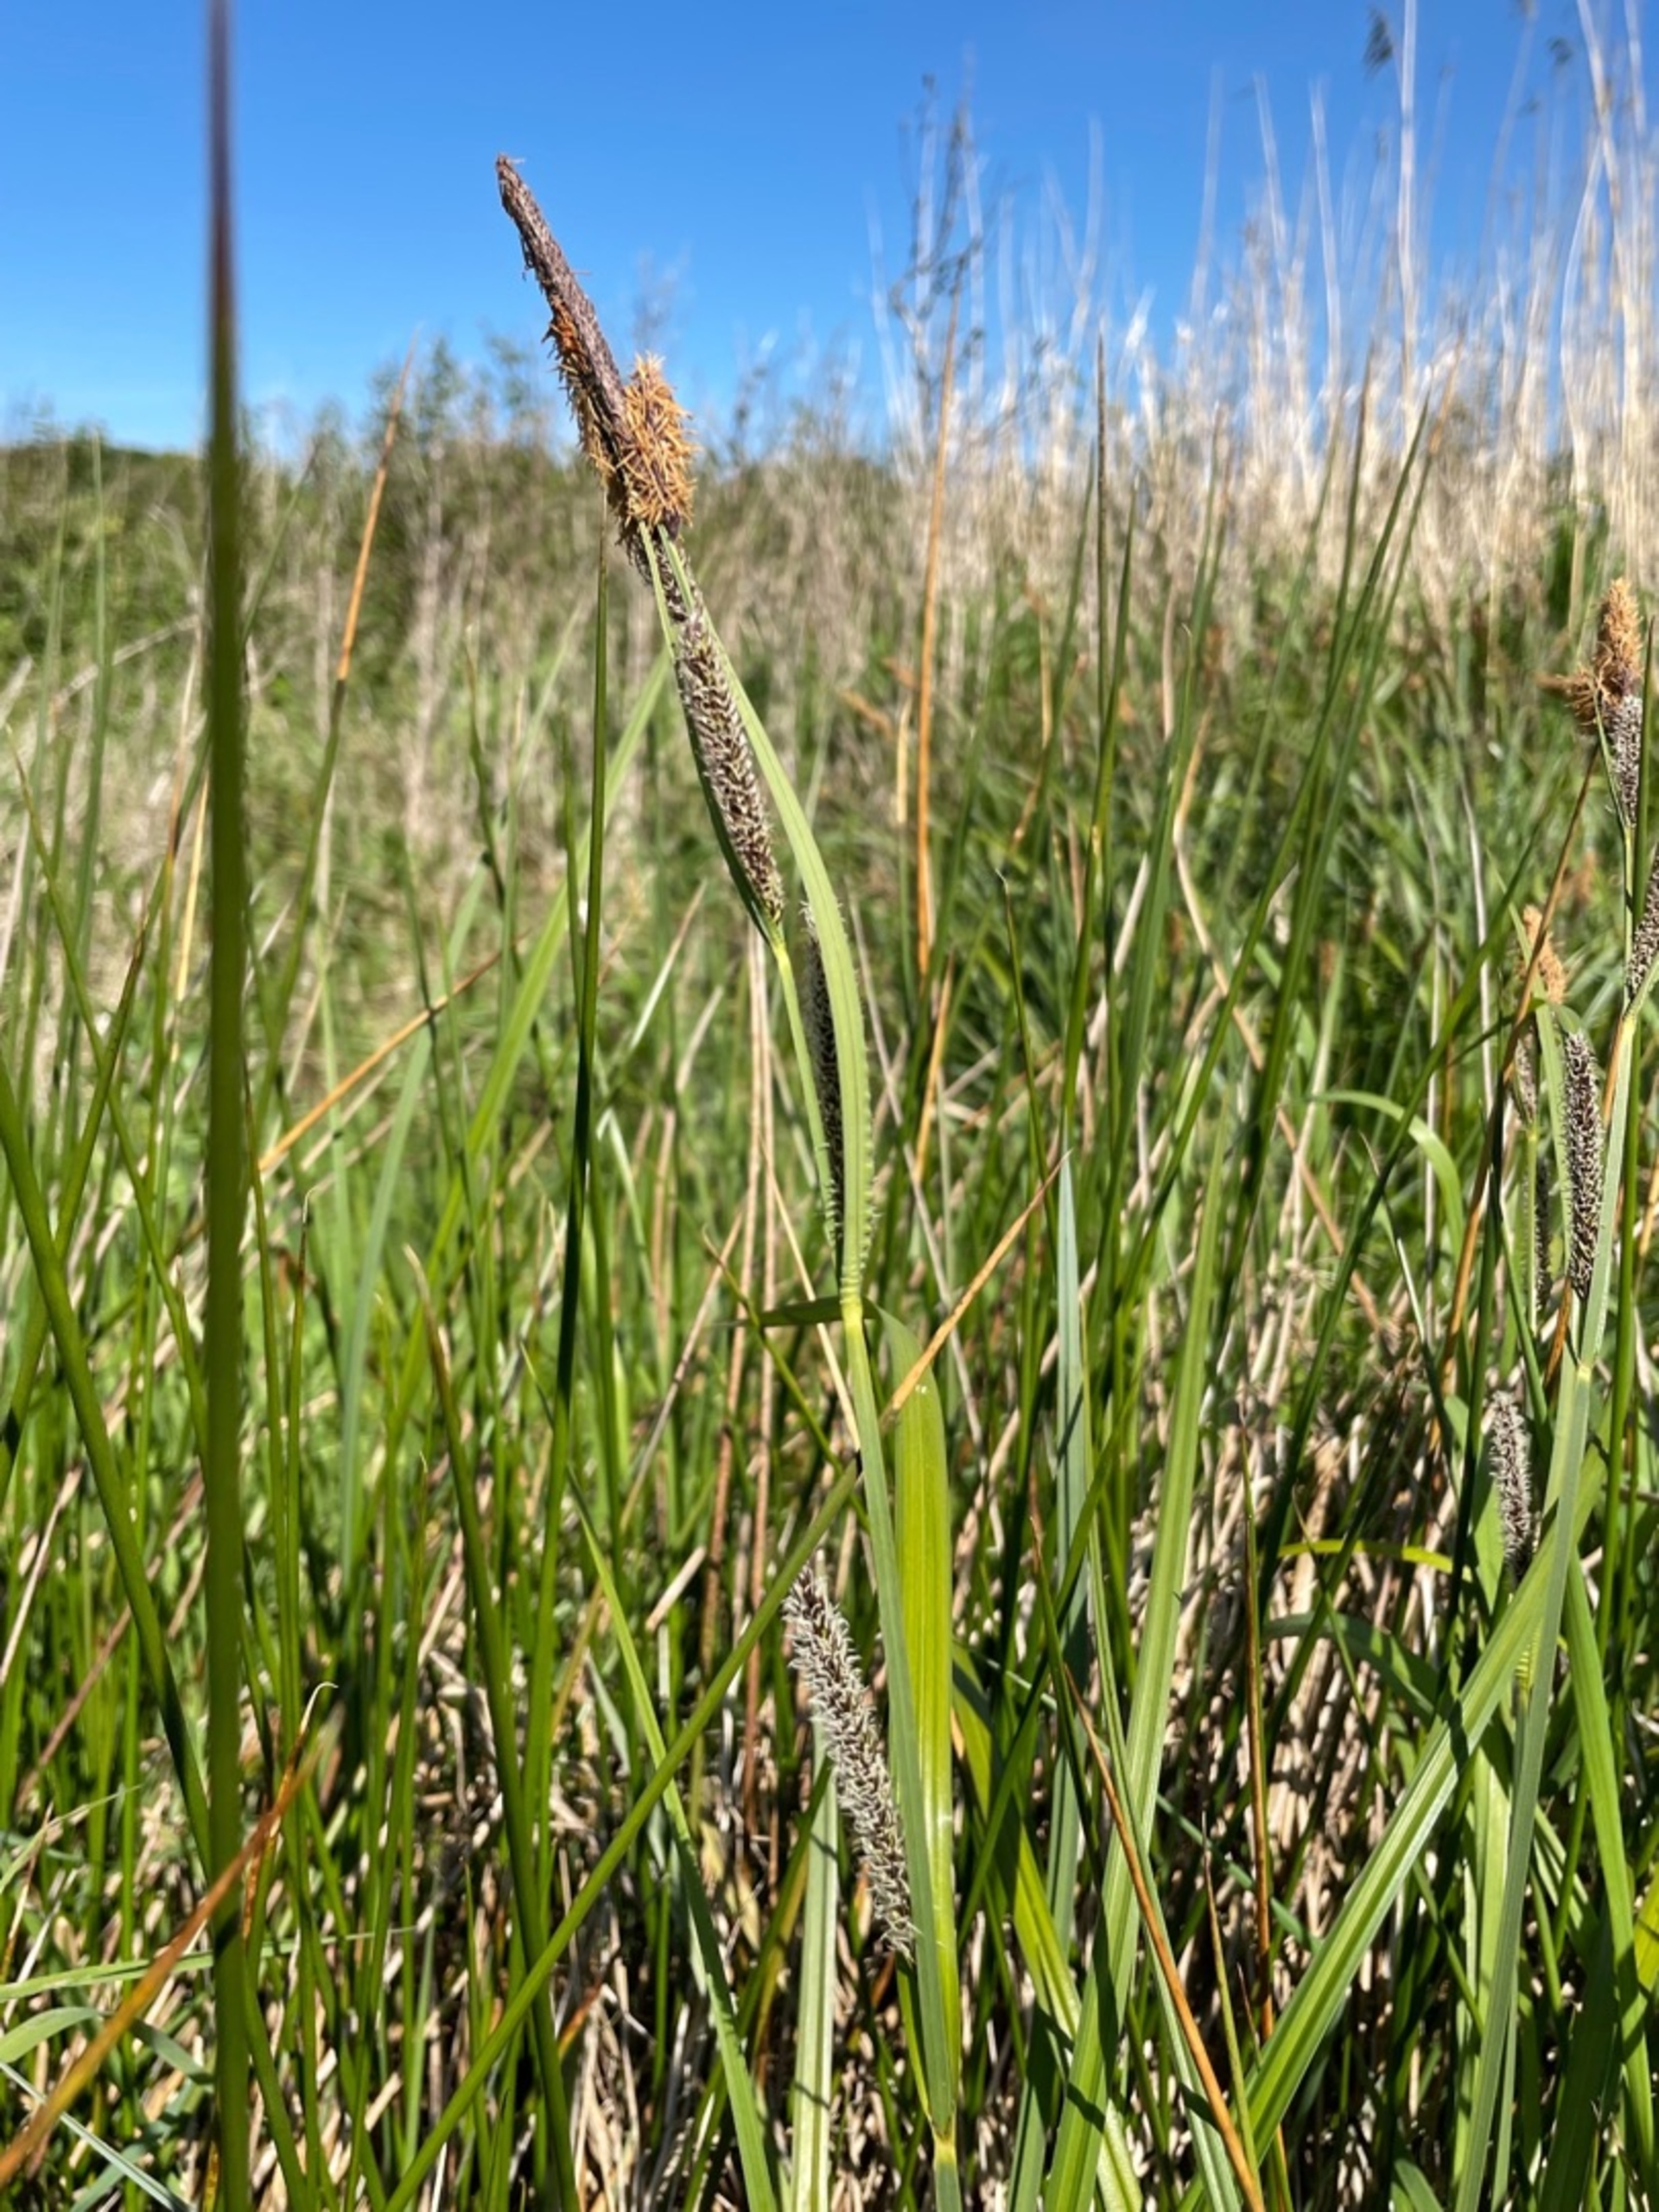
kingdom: Plantae
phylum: Tracheophyta
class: Liliopsida
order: Poales
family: Cyperaceae
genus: Carex
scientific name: Carex acutiformis
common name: Kær-star
